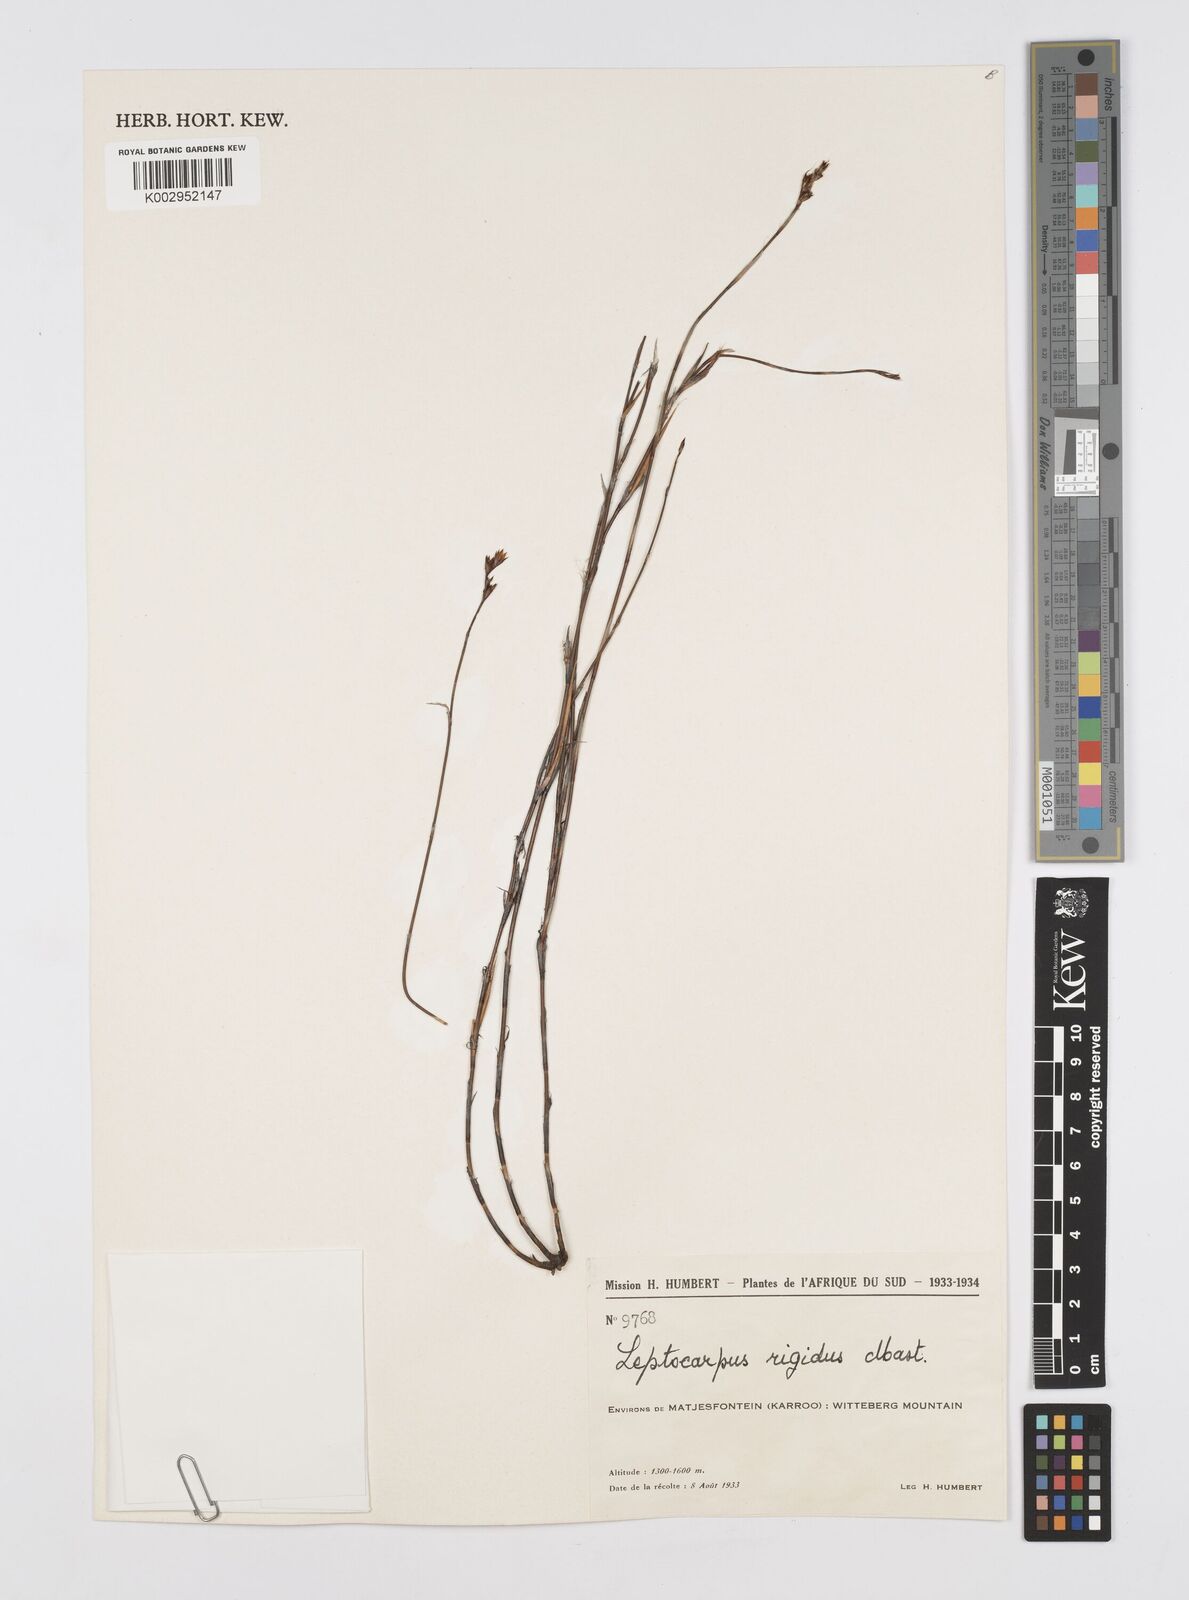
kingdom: Plantae
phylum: Tracheophyta
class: Liliopsida
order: Poales
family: Restionaceae
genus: Restio
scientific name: Restio rigidus
